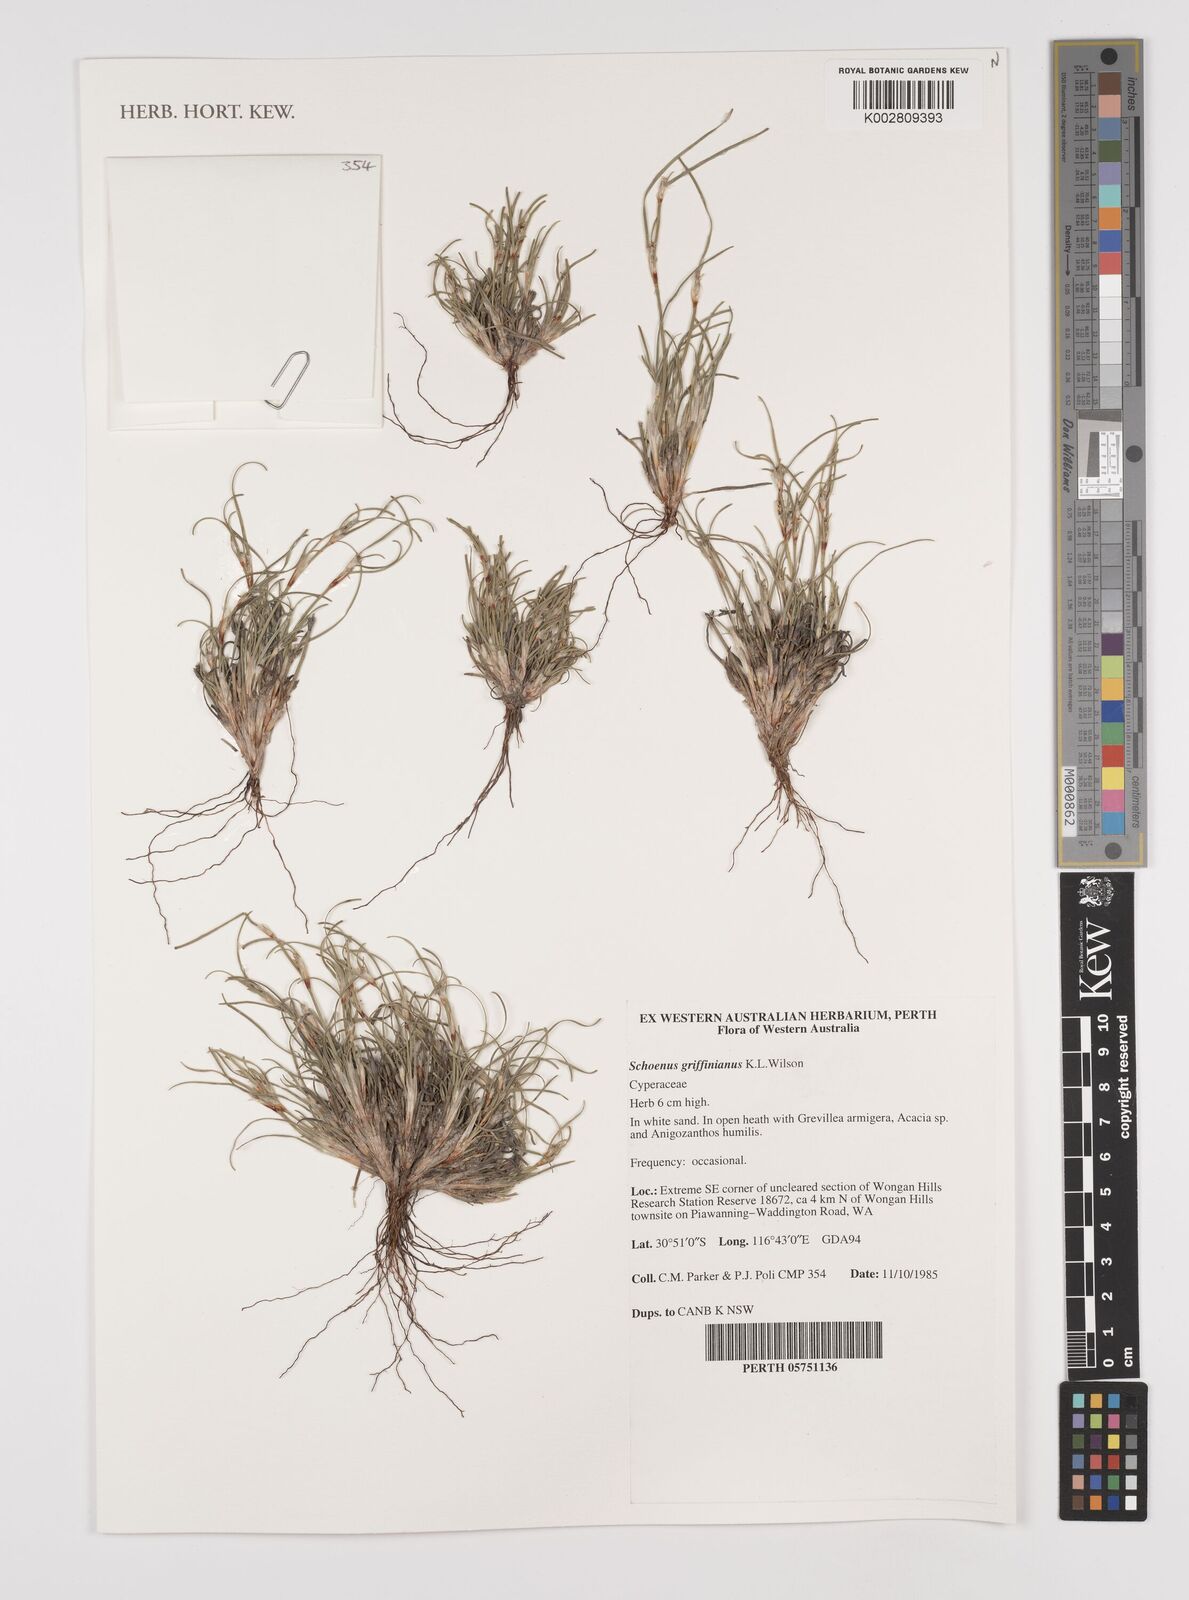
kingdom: Plantae
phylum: Tracheophyta
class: Liliopsida
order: Poales
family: Cyperaceae
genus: Schoenus
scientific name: Schoenus griffinianus
